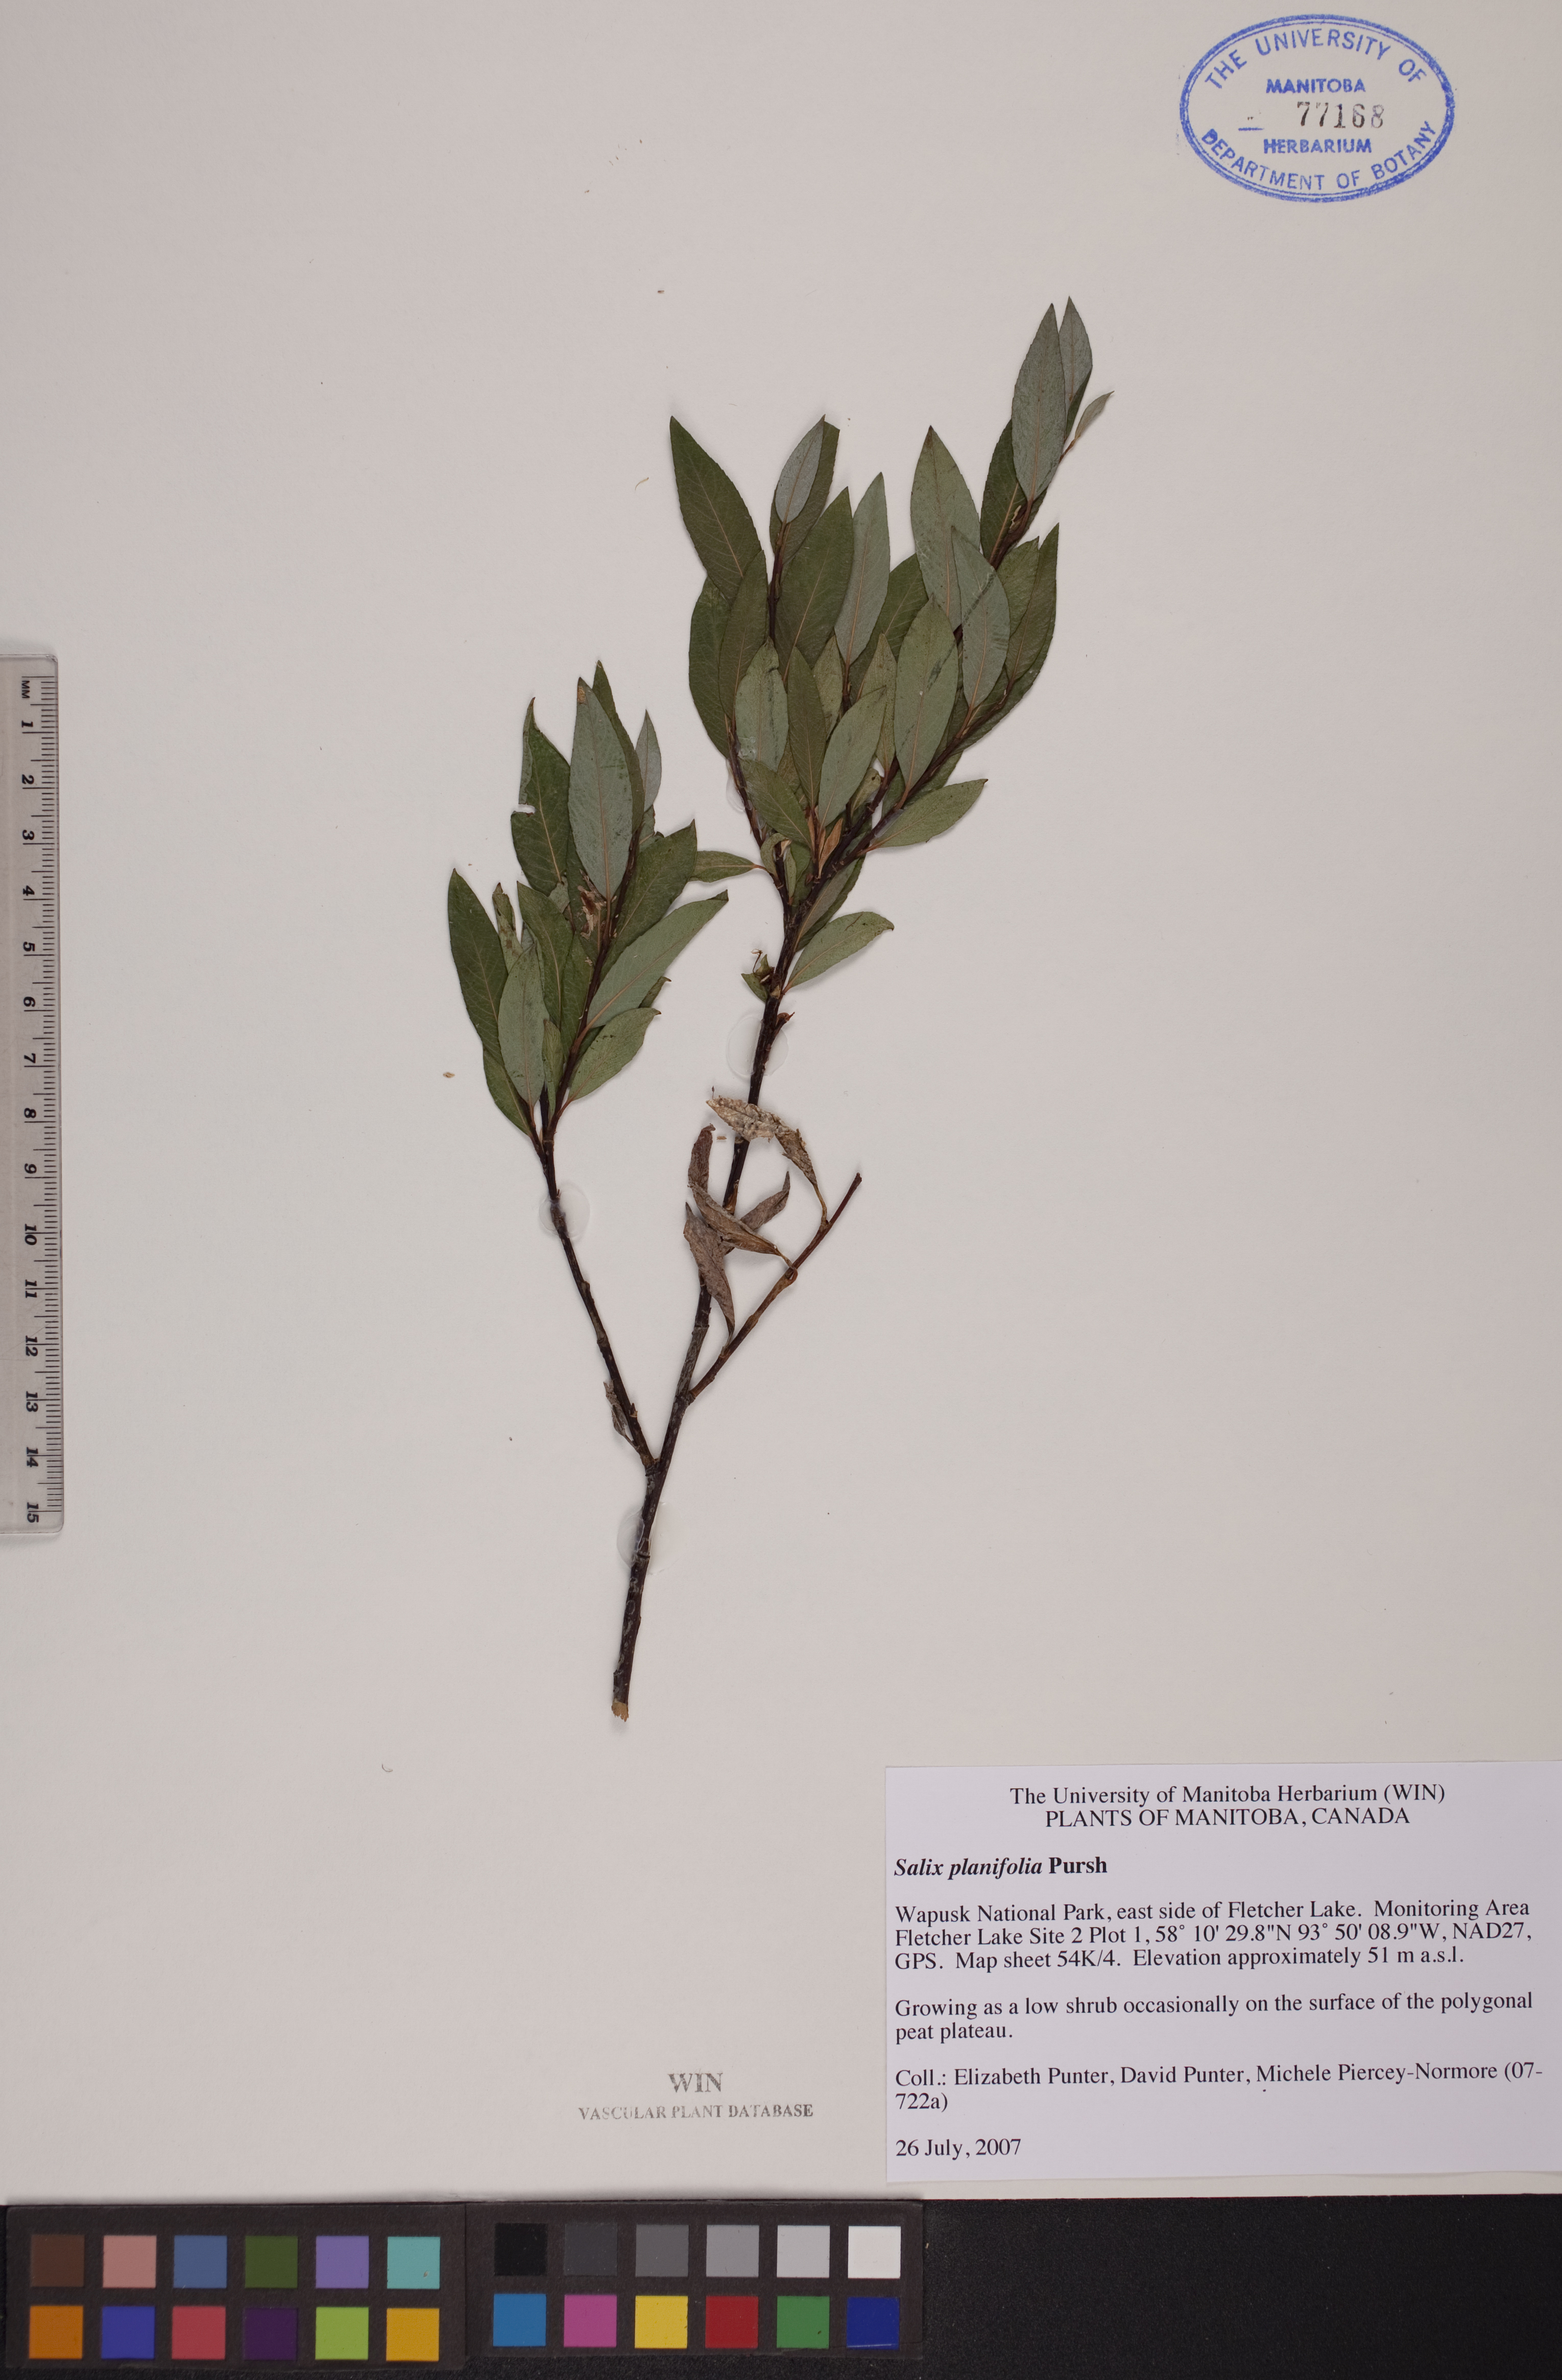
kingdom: Plantae
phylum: Tracheophyta
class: Magnoliopsida
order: Malpighiales
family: Salicaceae
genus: Salix
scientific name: Salix planifolia
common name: Mountain willow
